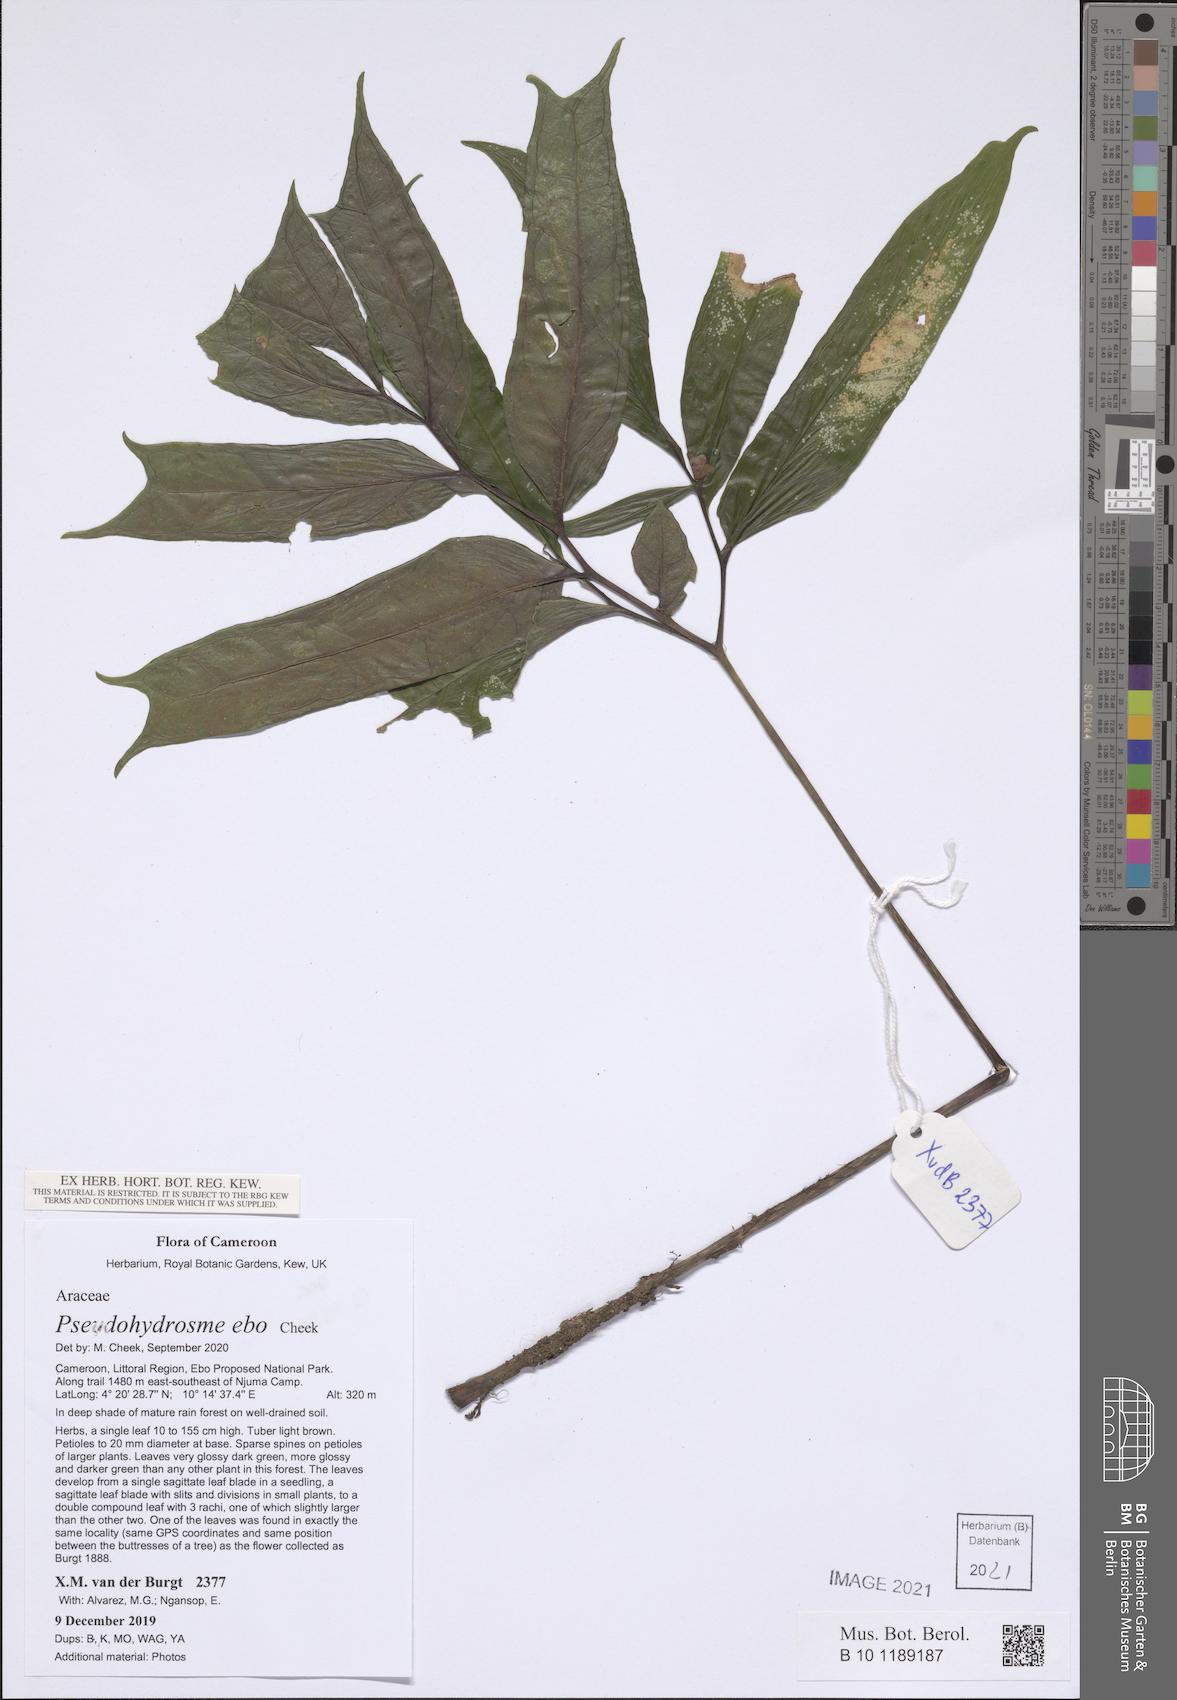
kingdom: Plantae
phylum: Tracheophyta
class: Liliopsida
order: Alismatales
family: Araceae
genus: Pseudohydrosme
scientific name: Pseudohydrosme ebo
